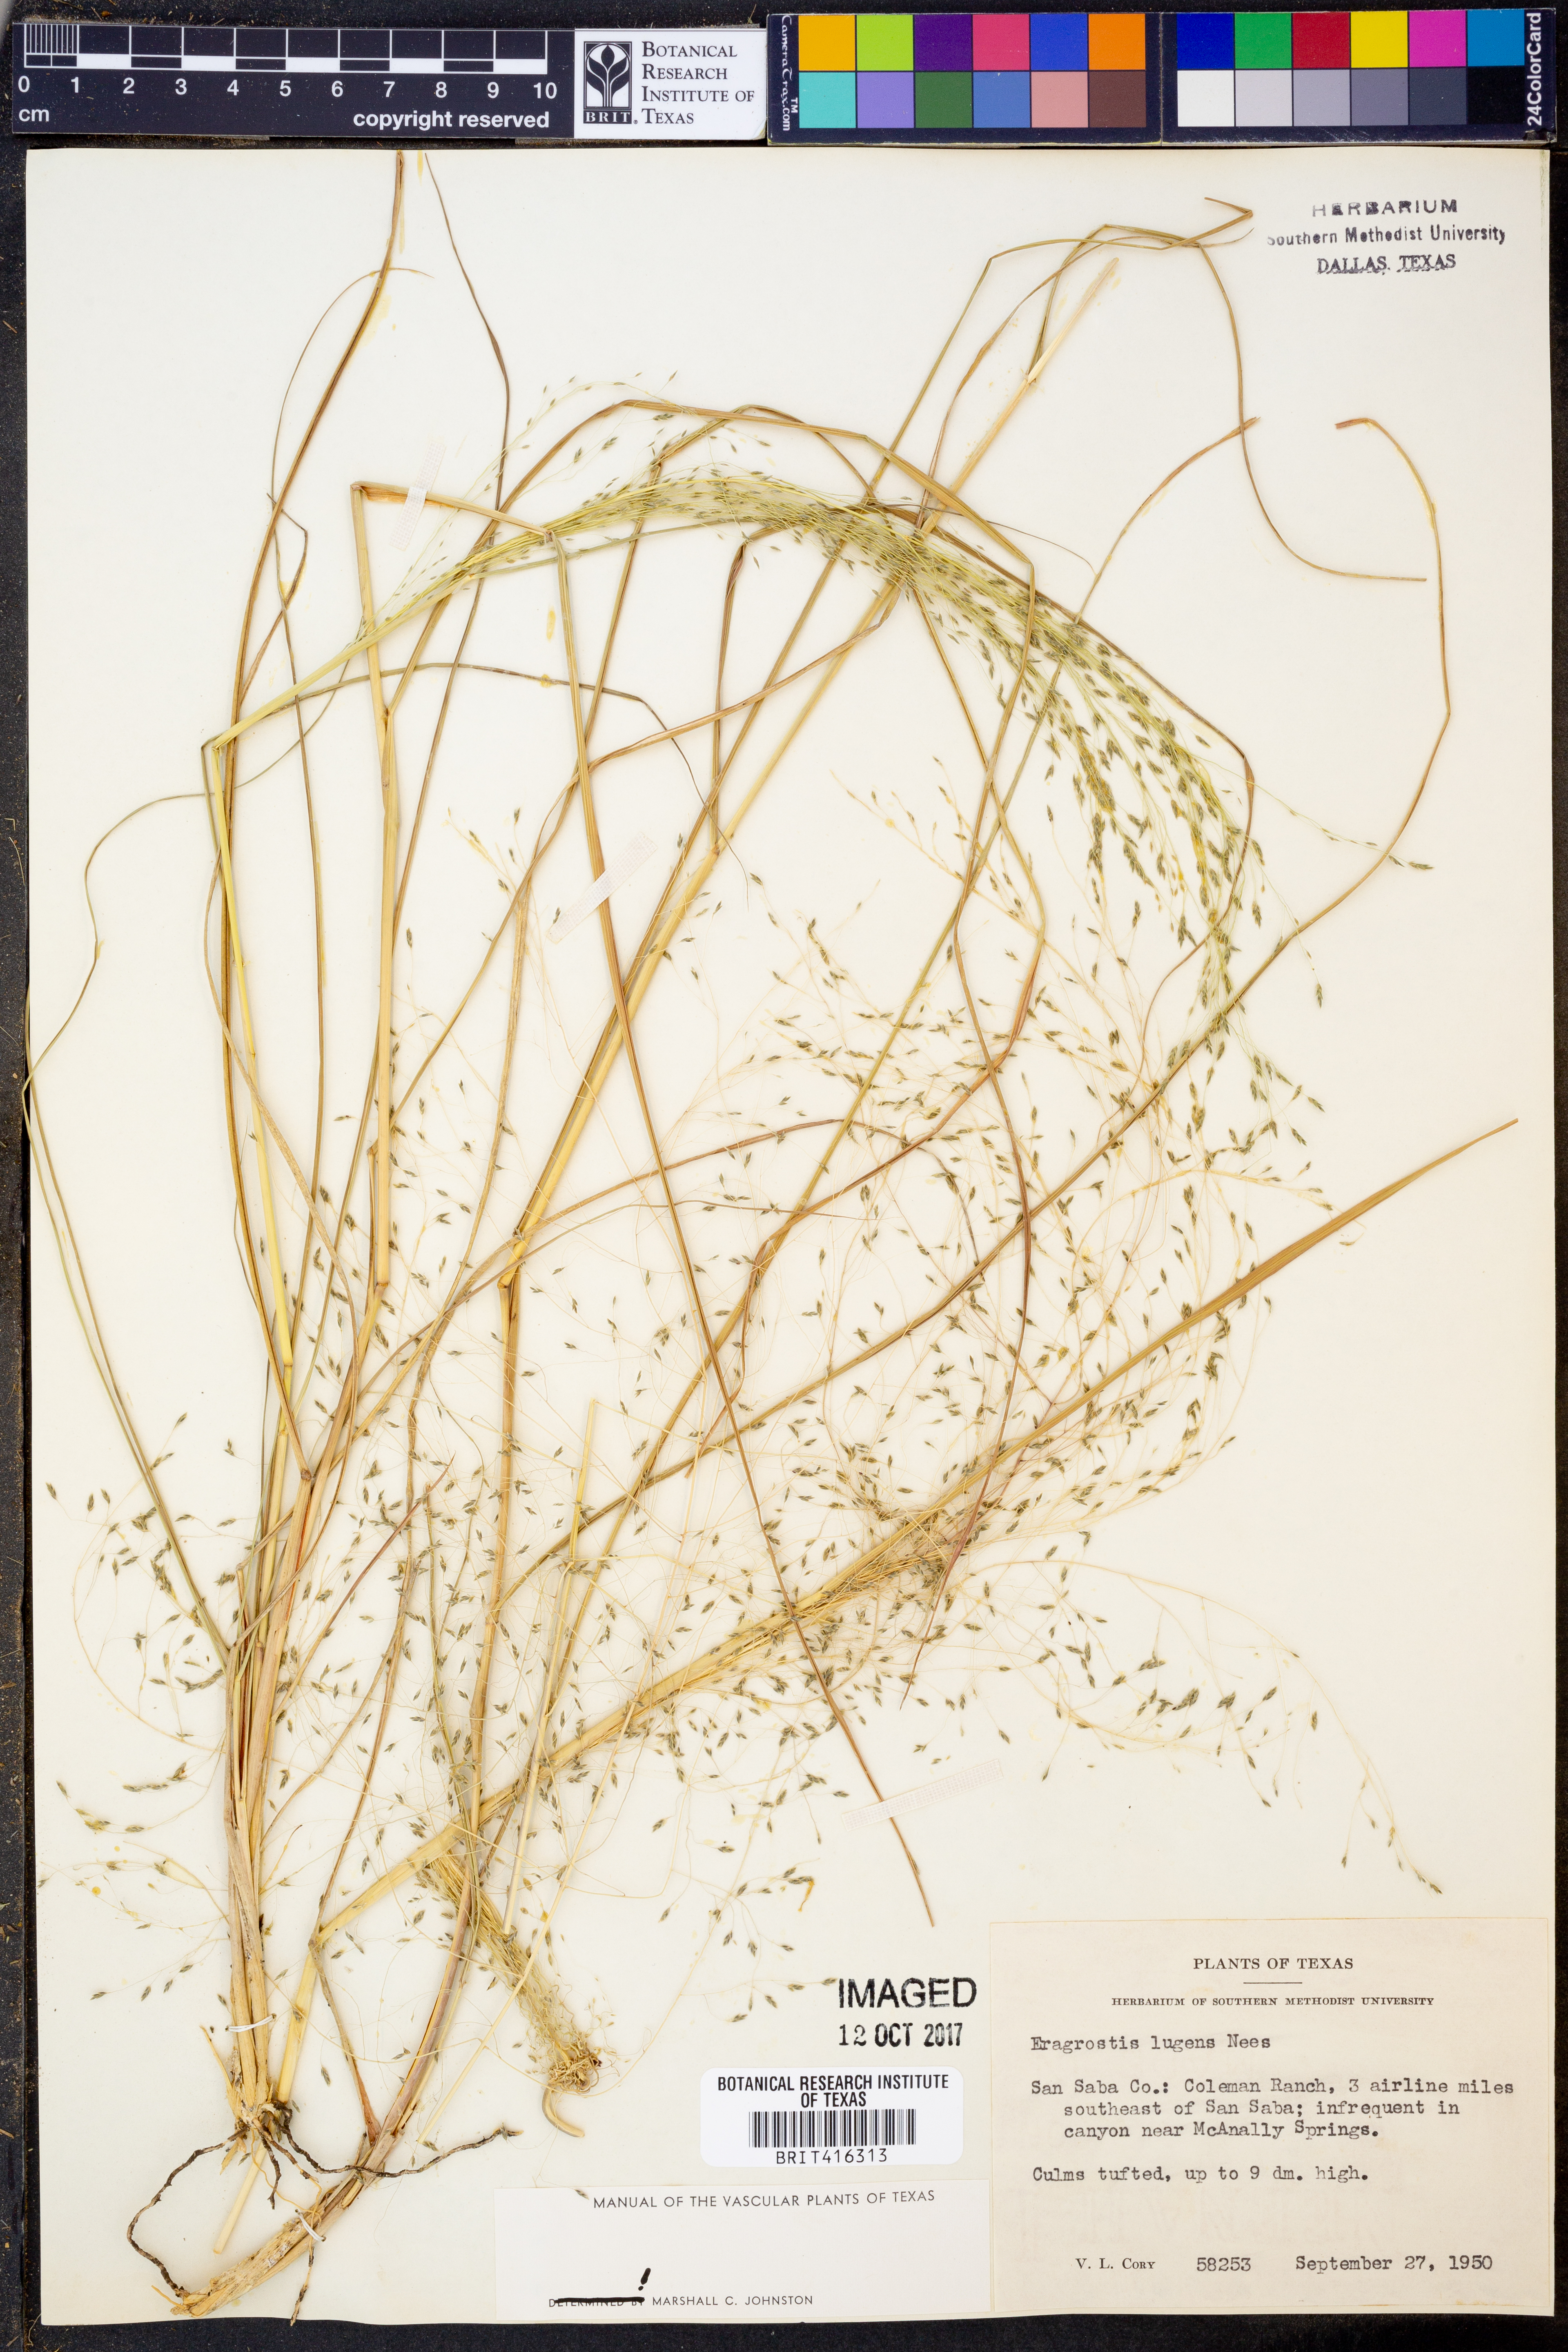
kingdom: Plantae
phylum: Tracheophyta
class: Liliopsida
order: Poales
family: Poaceae
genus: Eragrostis
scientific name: Eragrostis capillaris
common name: Hair-like lovegrass
